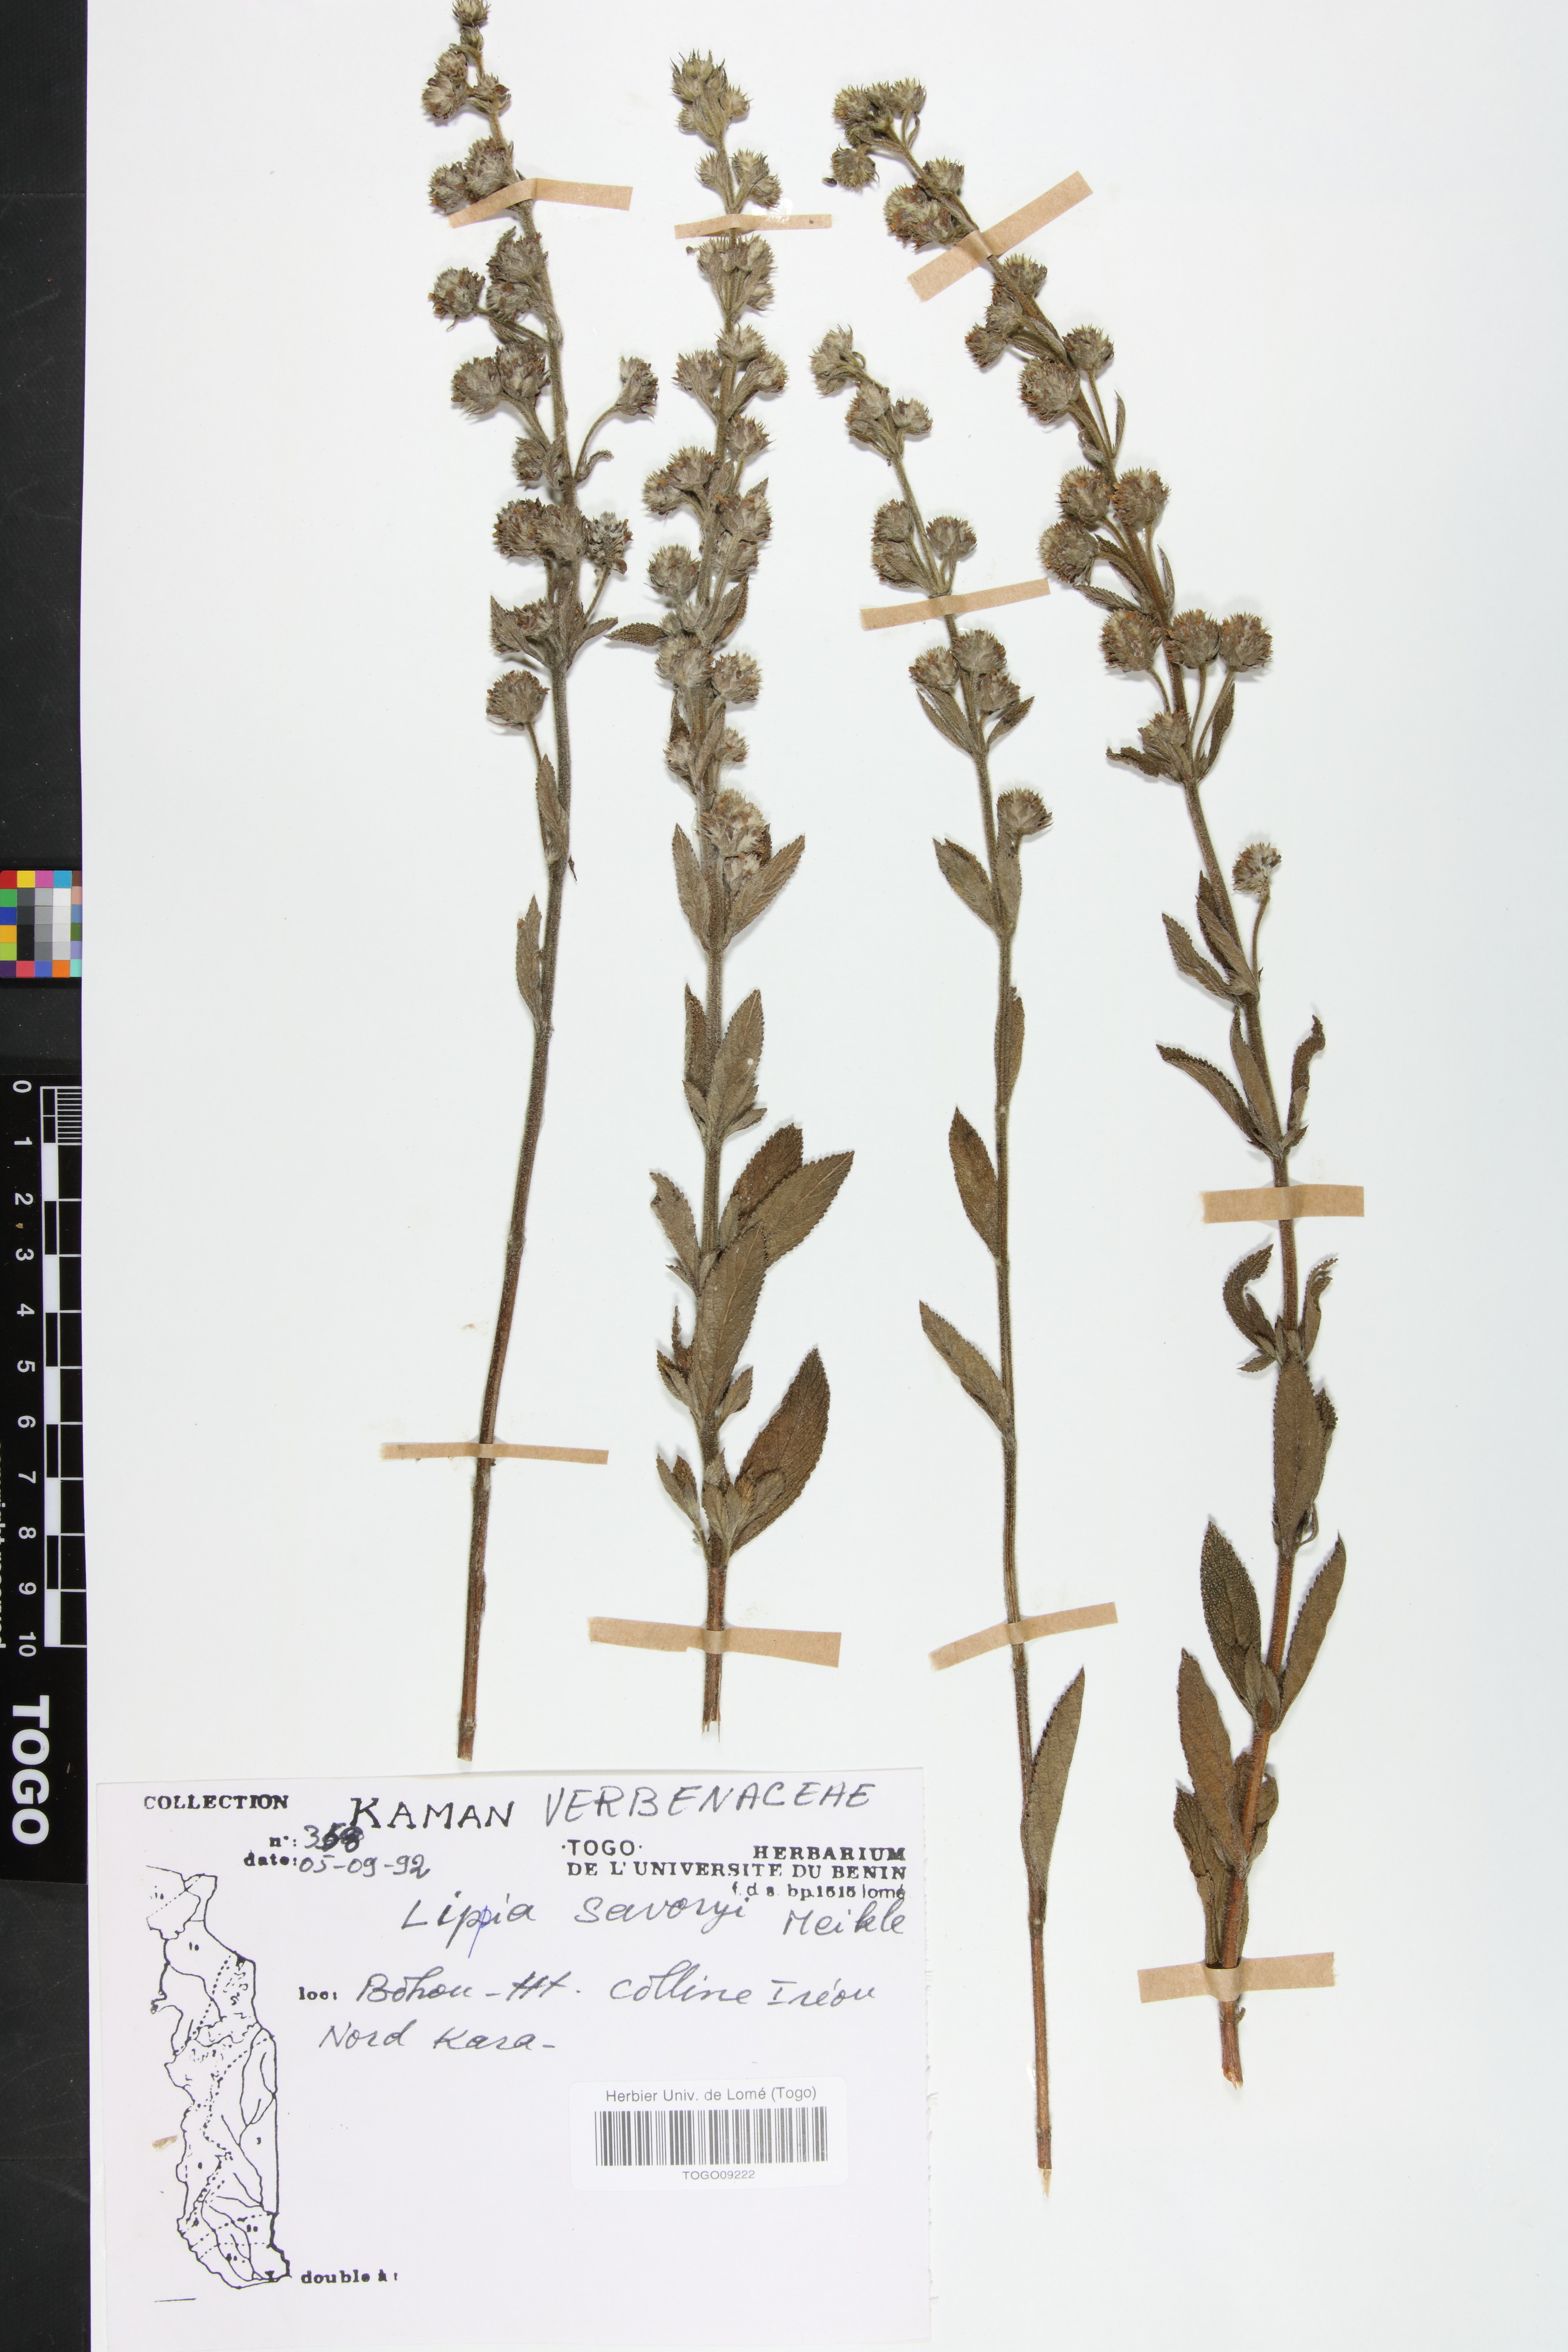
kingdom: Plantae
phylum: Tracheophyta
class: Magnoliopsida
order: Lamiales
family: Verbenaceae
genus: Lippia
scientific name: Lippia savoryi
